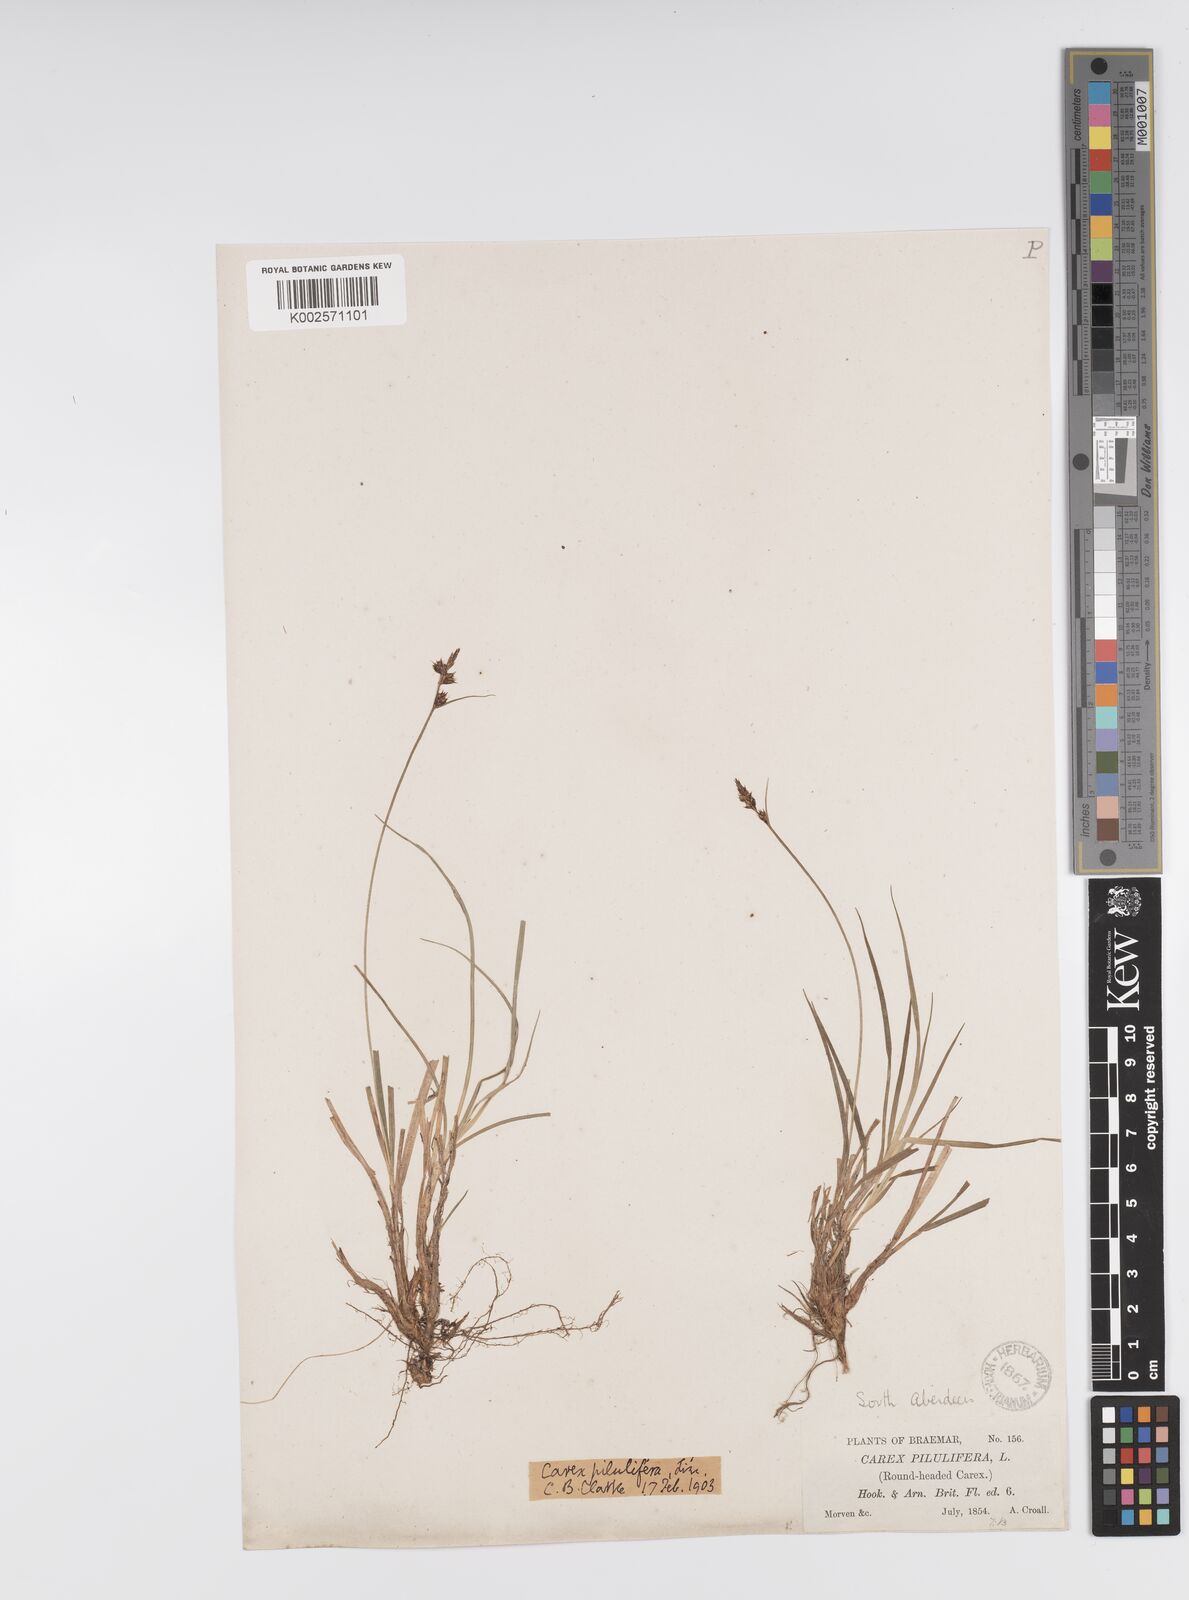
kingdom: Plantae
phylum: Tracheophyta
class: Liliopsida
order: Poales
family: Cyperaceae
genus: Carex
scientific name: Carex pilulifera
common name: Pill sedge
